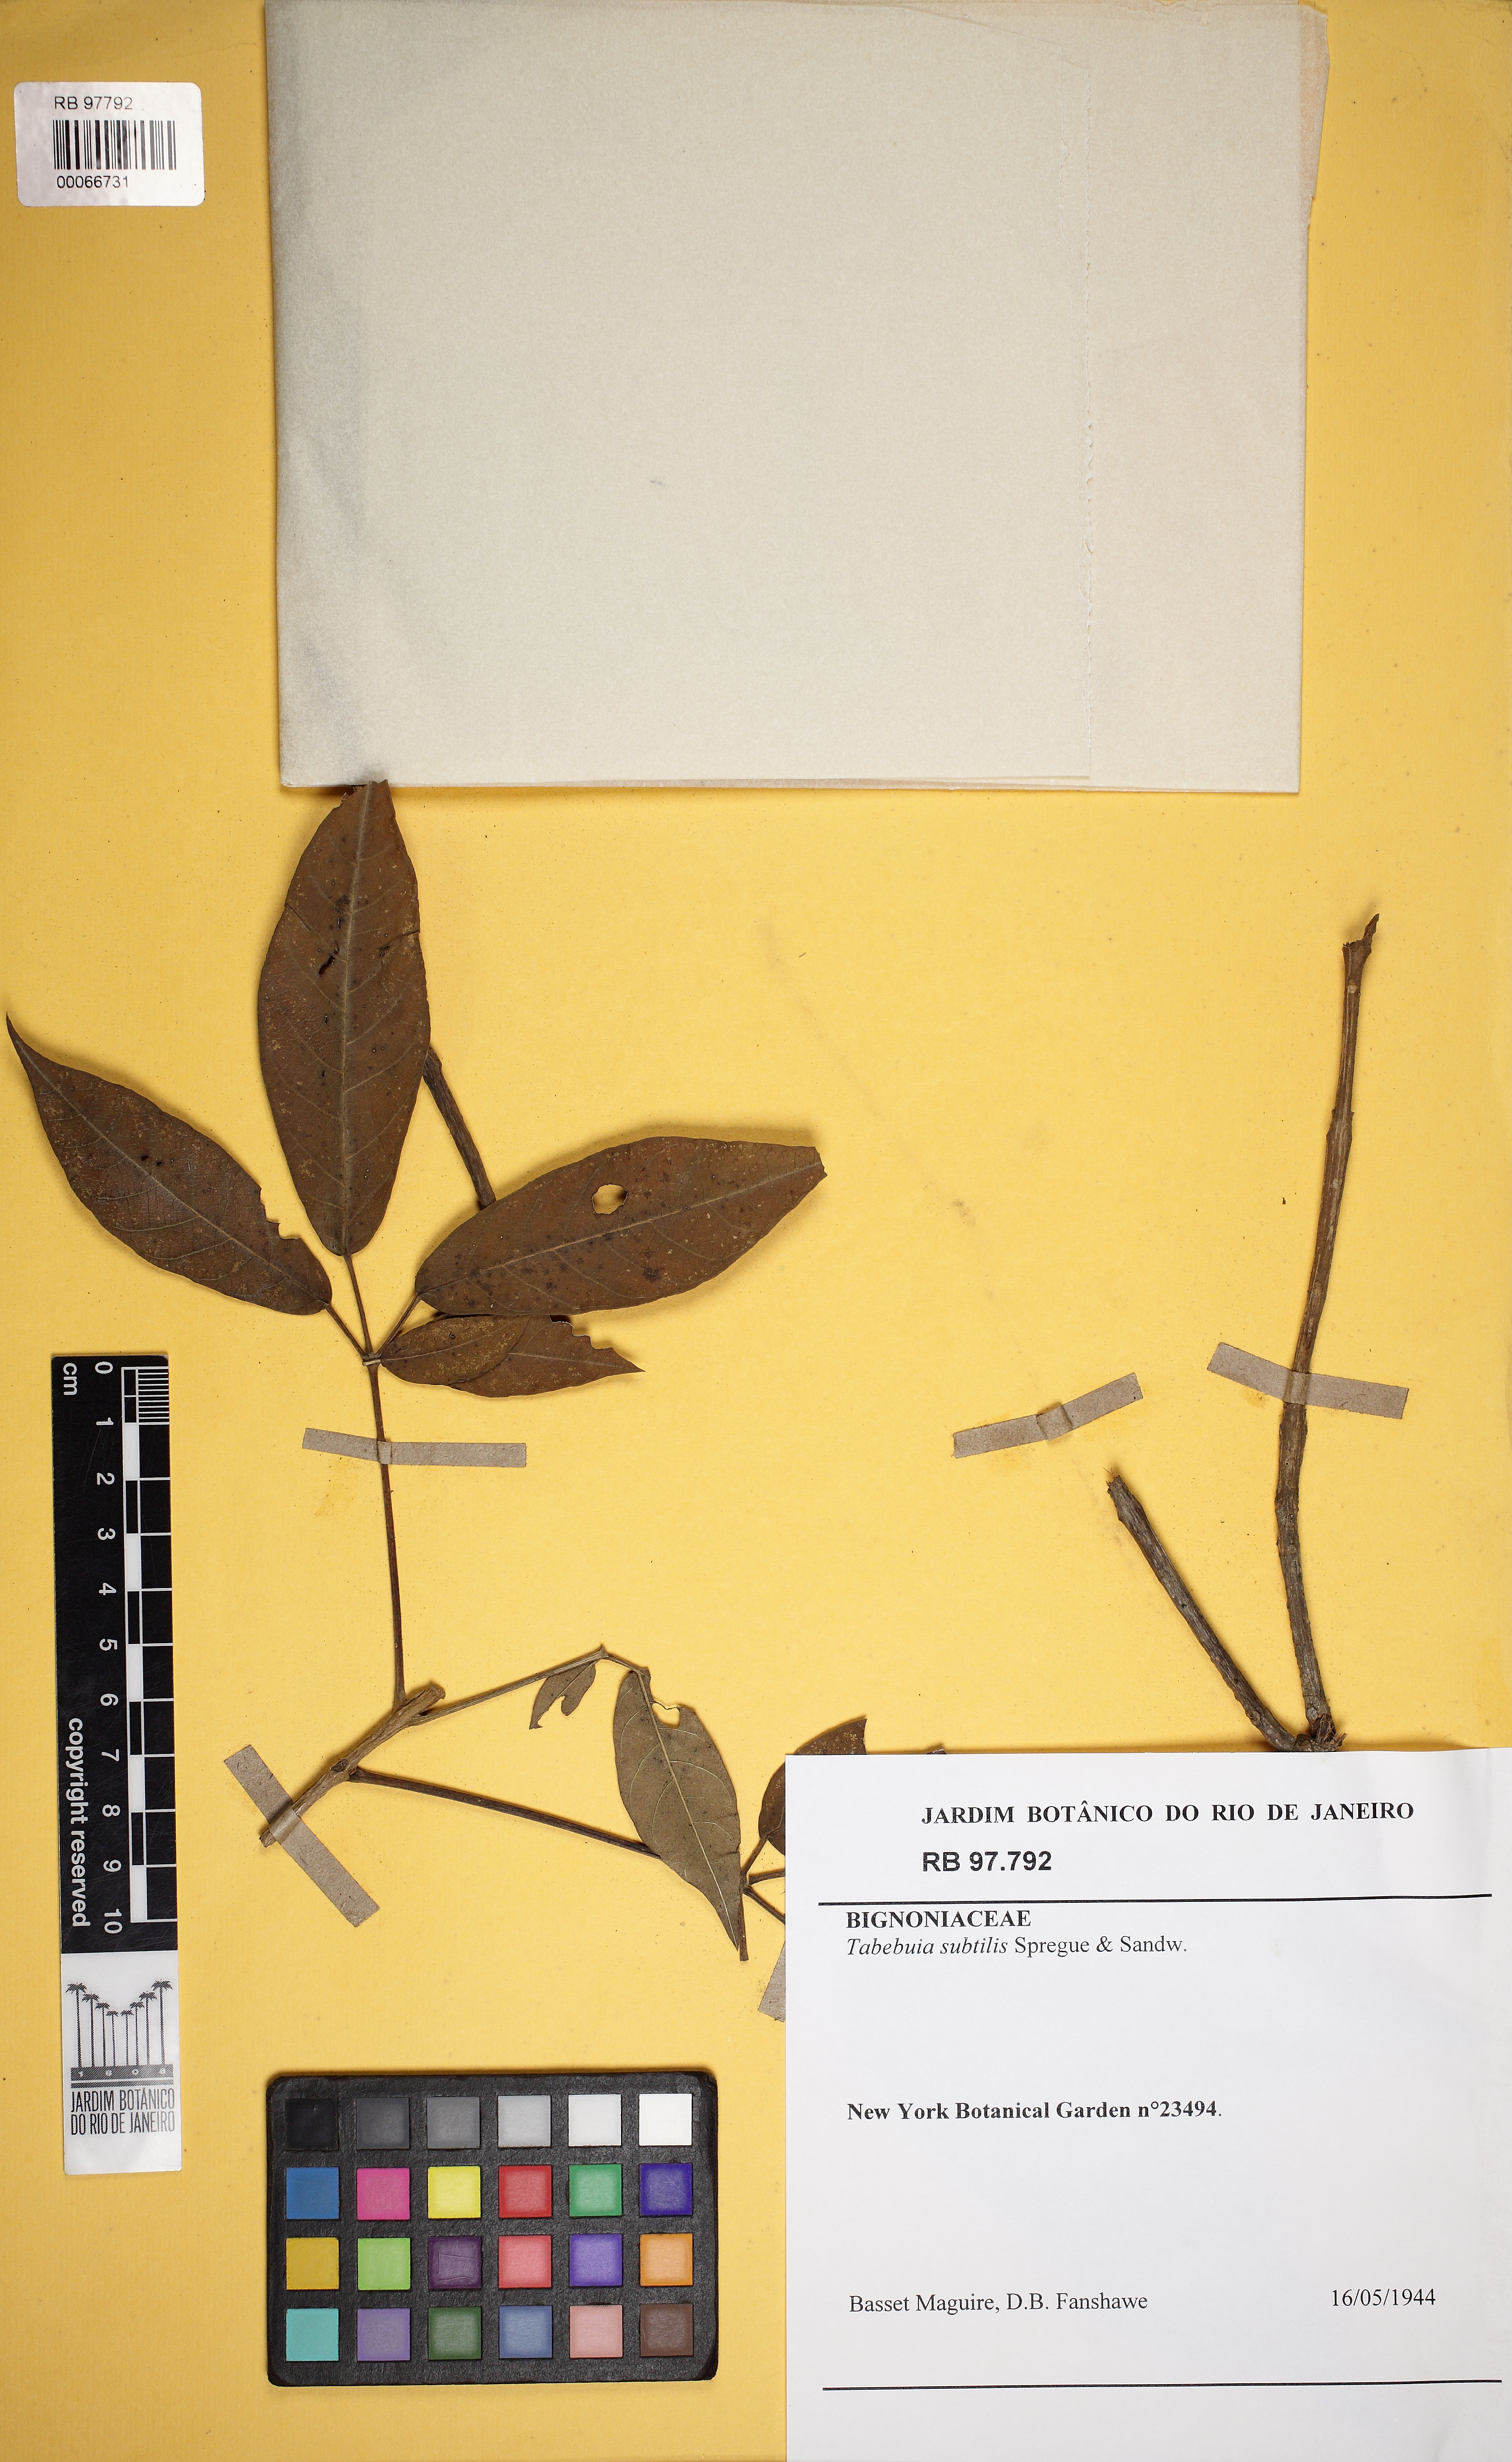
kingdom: Plantae
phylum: Tracheophyta
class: Magnoliopsida
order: Lamiales
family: Bignoniaceae
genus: Tabebuia
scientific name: Tabebuia
